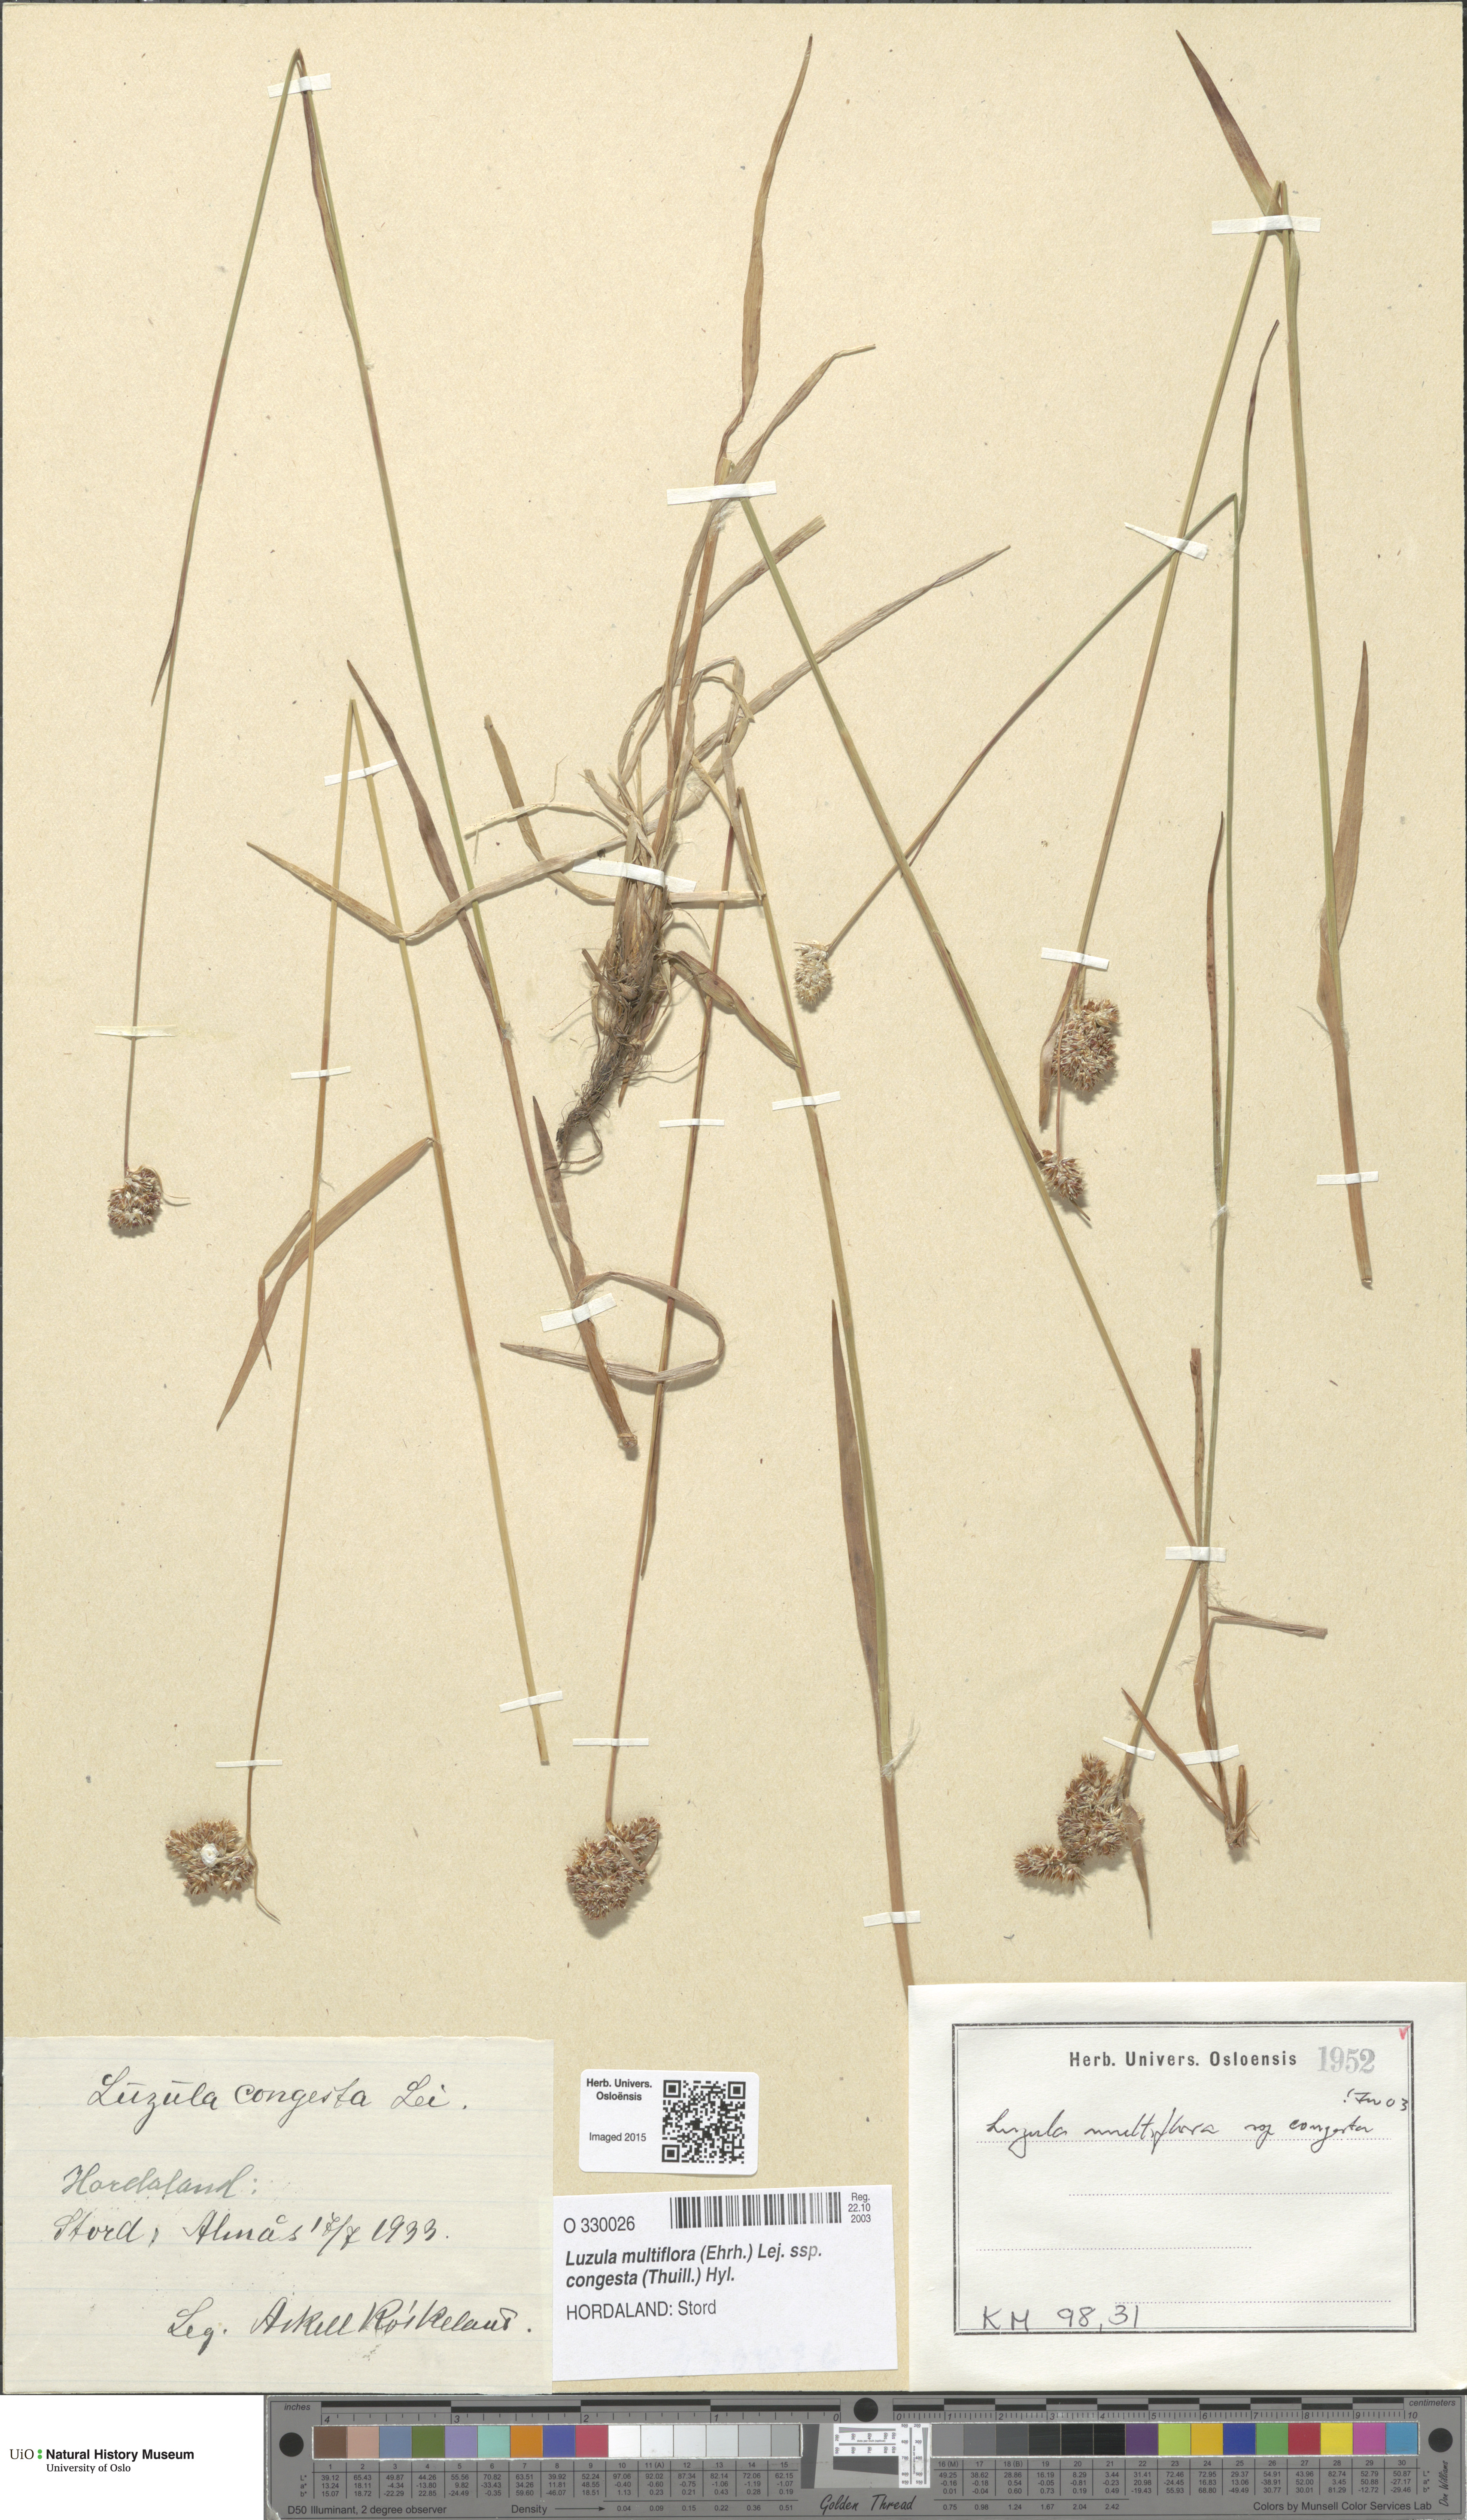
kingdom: Plantae
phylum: Tracheophyta
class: Liliopsida
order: Poales
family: Juncaceae
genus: Luzula
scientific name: Luzula congesta
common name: Heath woodrush
